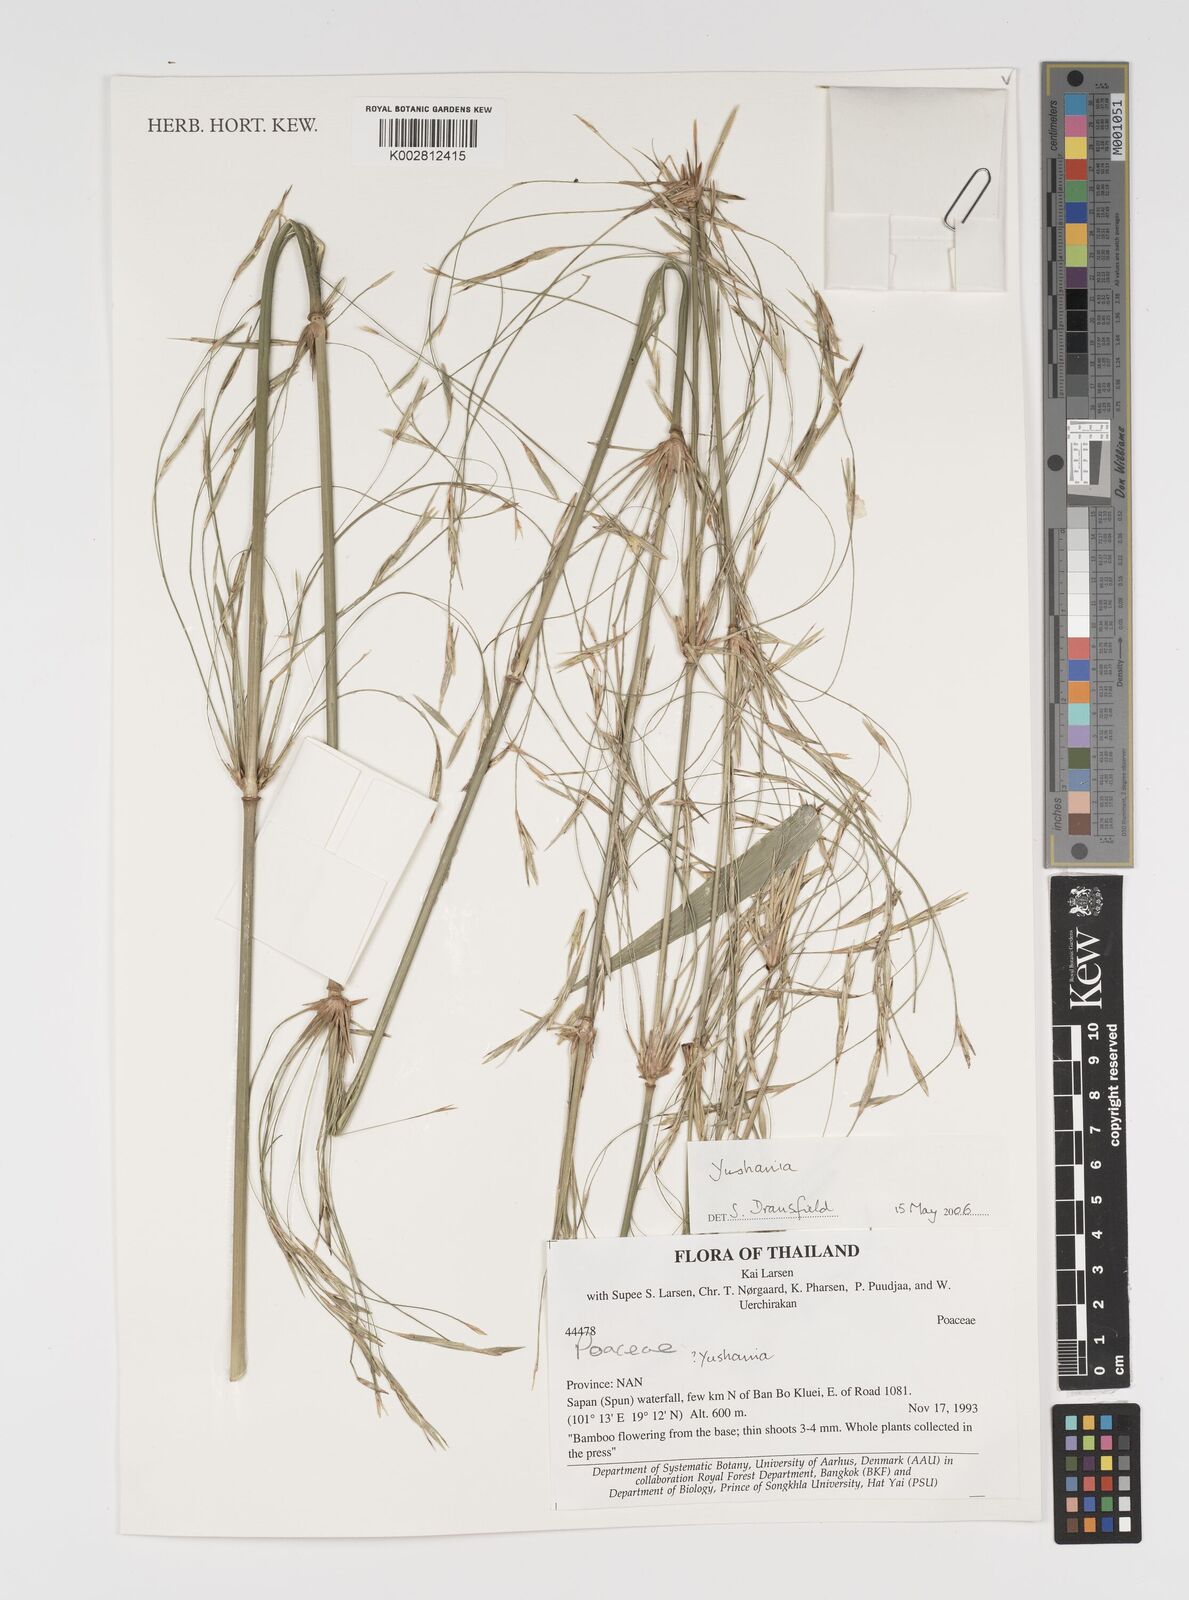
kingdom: Plantae
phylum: Tracheophyta
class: Liliopsida
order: Poales
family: Poaceae
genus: Yushania
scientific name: Yushania
